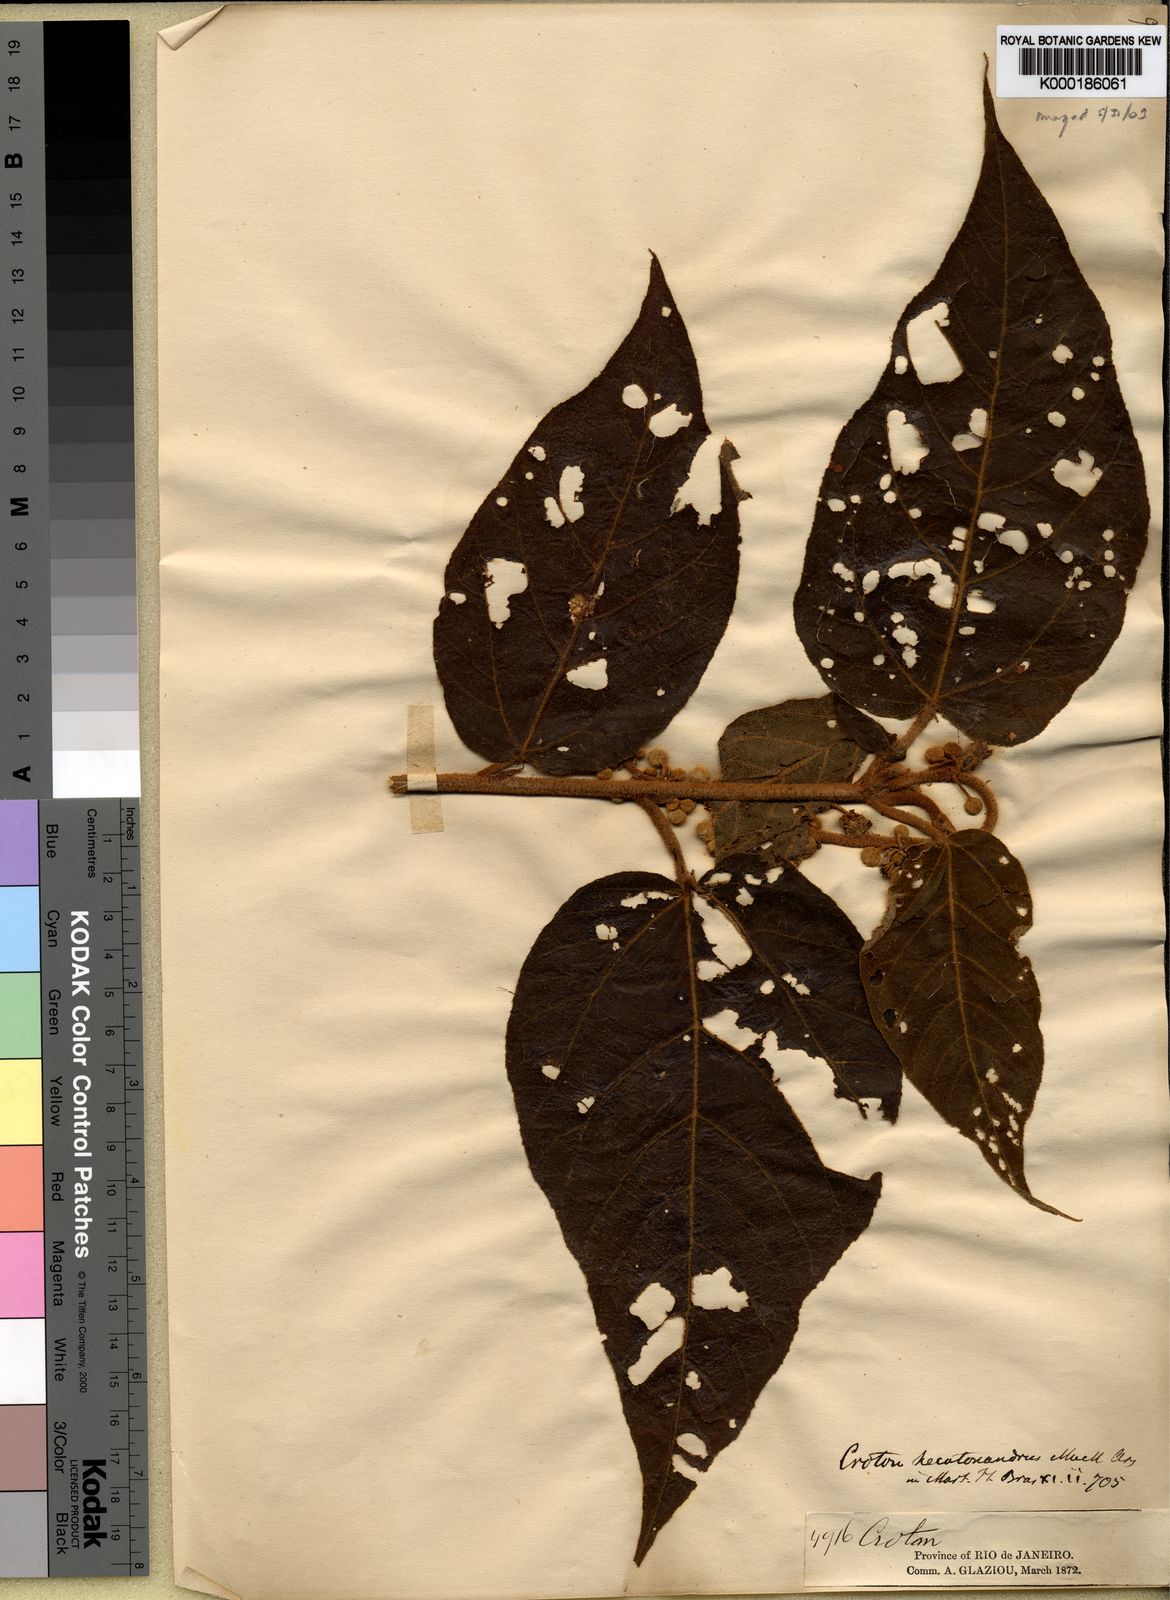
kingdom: Plantae
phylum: Tracheophyta
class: Magnoliopsida
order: Malpighiales
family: Euphorbiaceae
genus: Croton
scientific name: Croton vulnerarius
